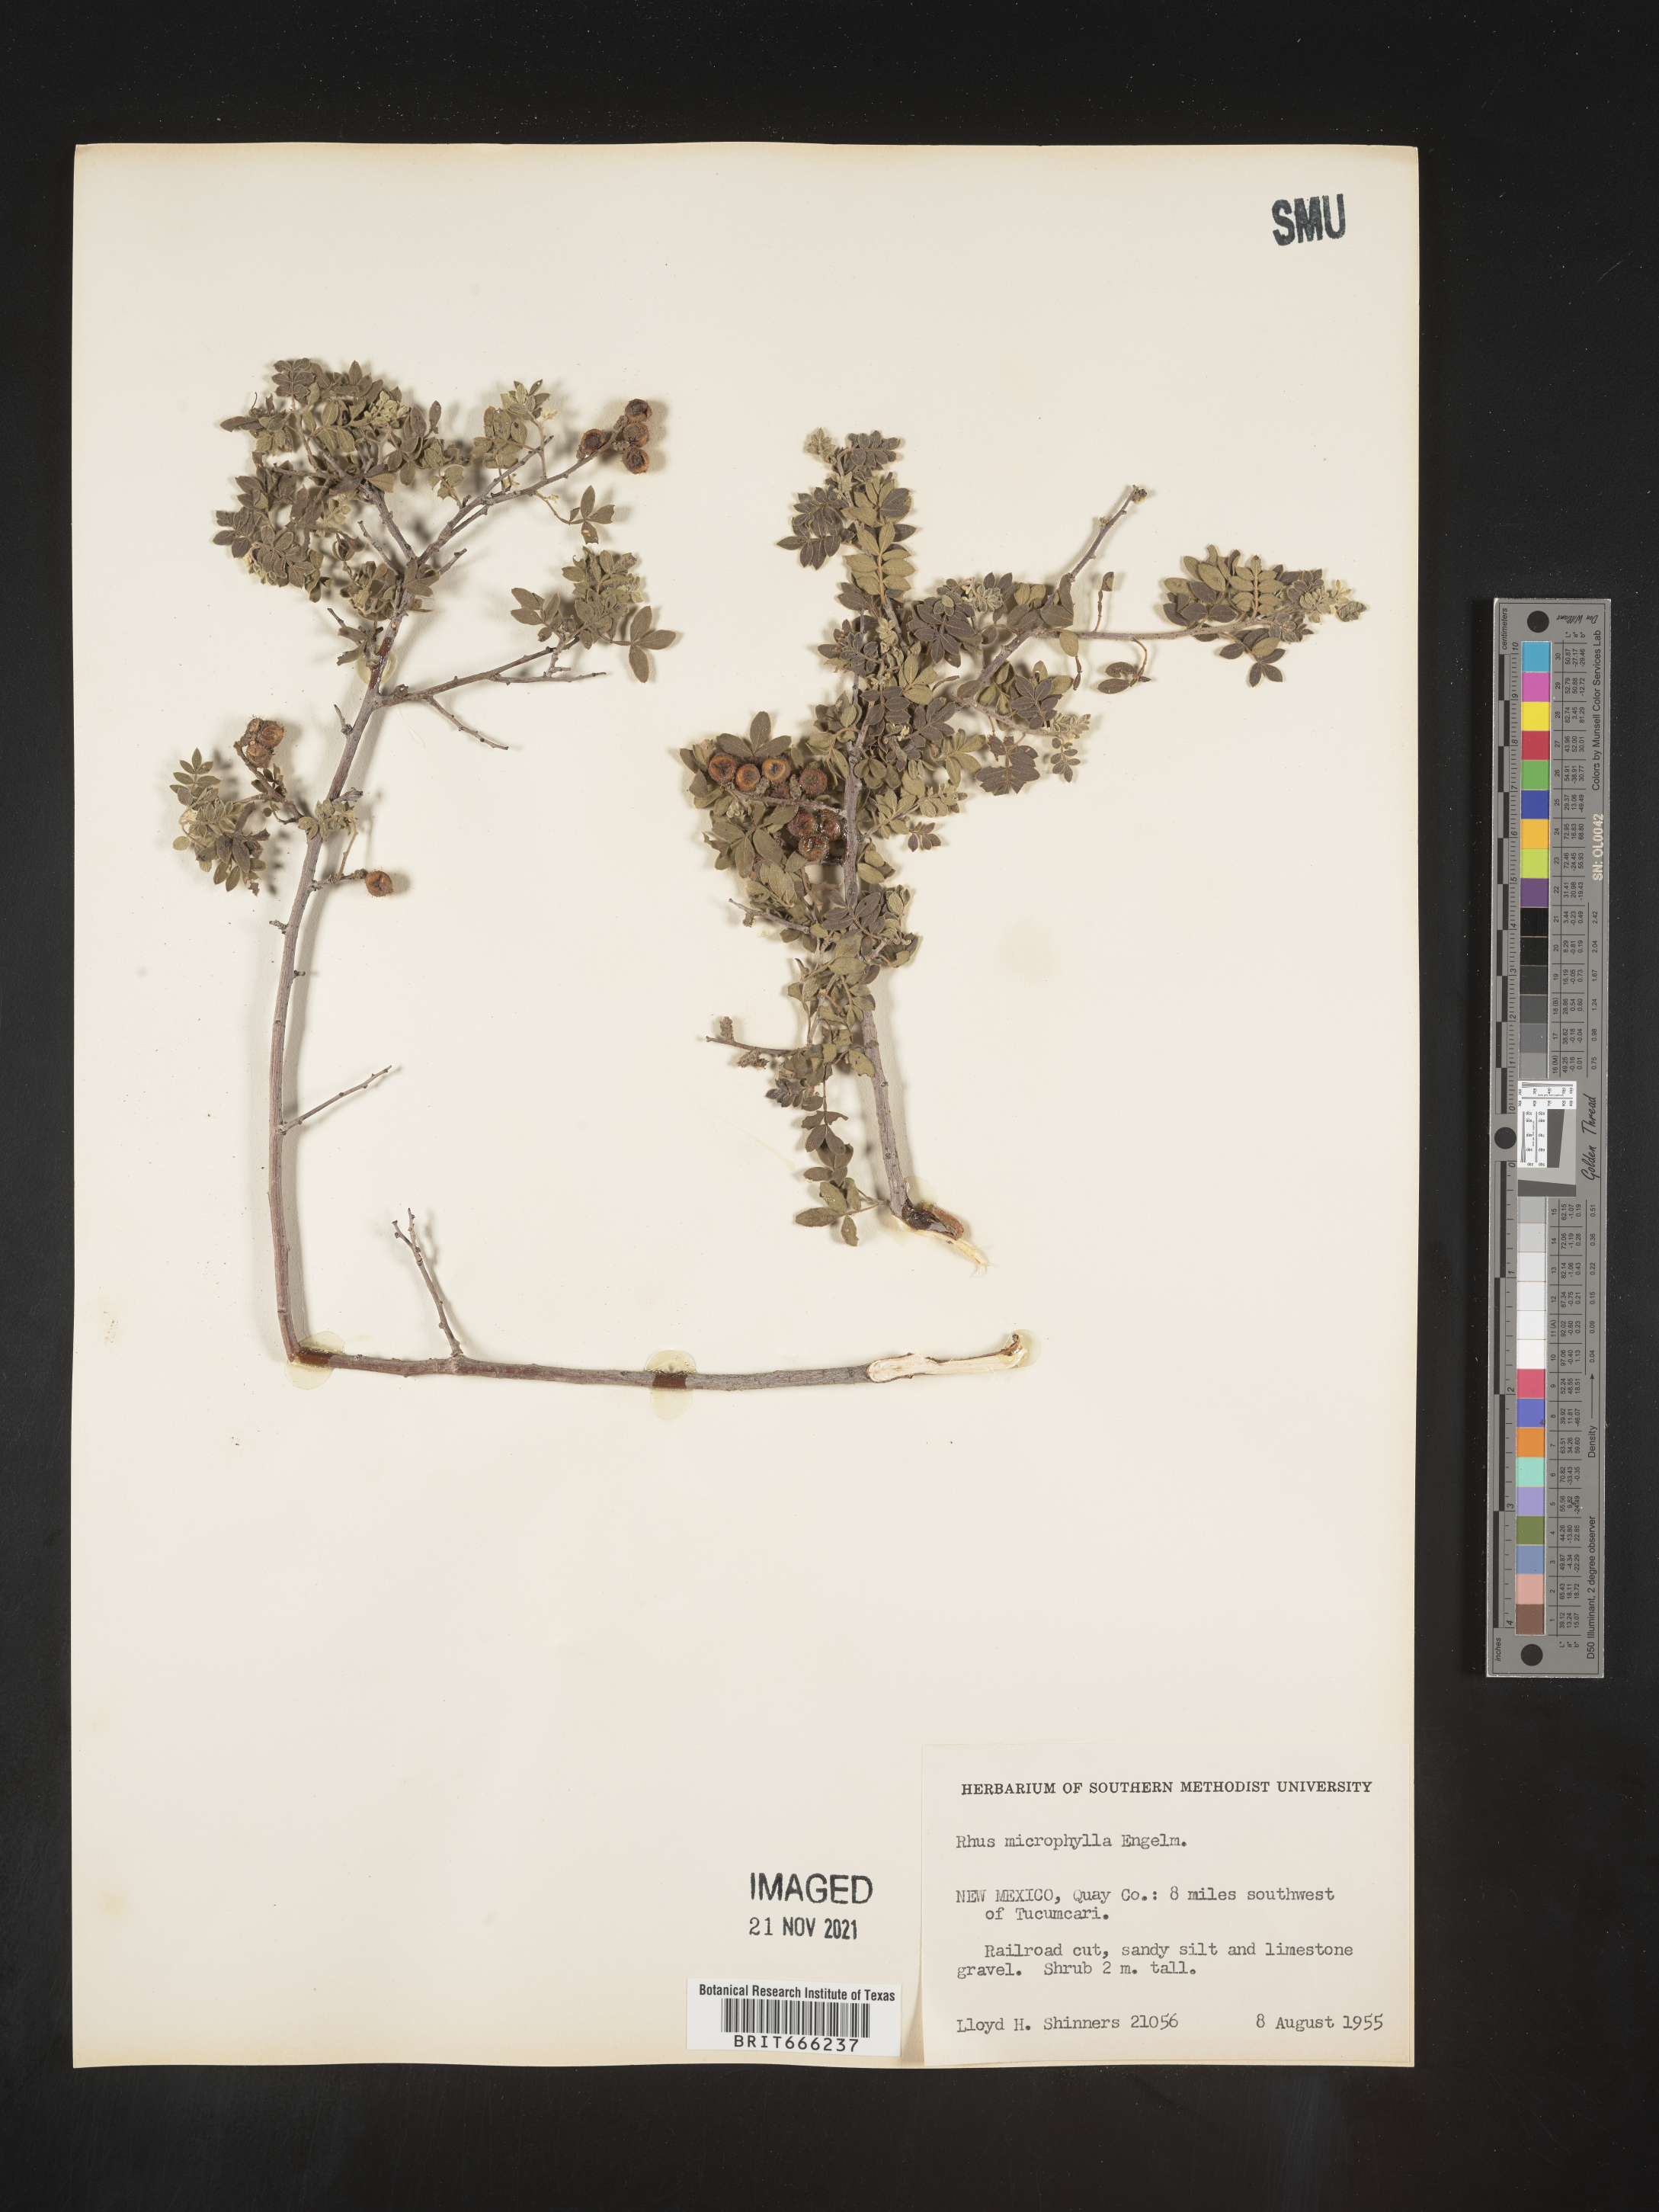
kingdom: Plantae
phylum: Tracheophyta
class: Magnoliopsida
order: Sapindales
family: Anacardiaceae
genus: Rhus
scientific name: Rhus
